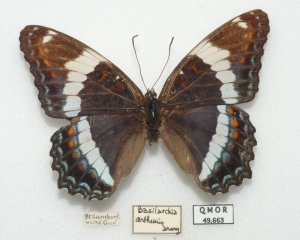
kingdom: Animalia
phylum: Arthropoda
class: Insecta
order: Lepidoptera
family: Nymphalidae
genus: Limenitis
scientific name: Limenitis arthemis
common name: Red-spotted Admiral
